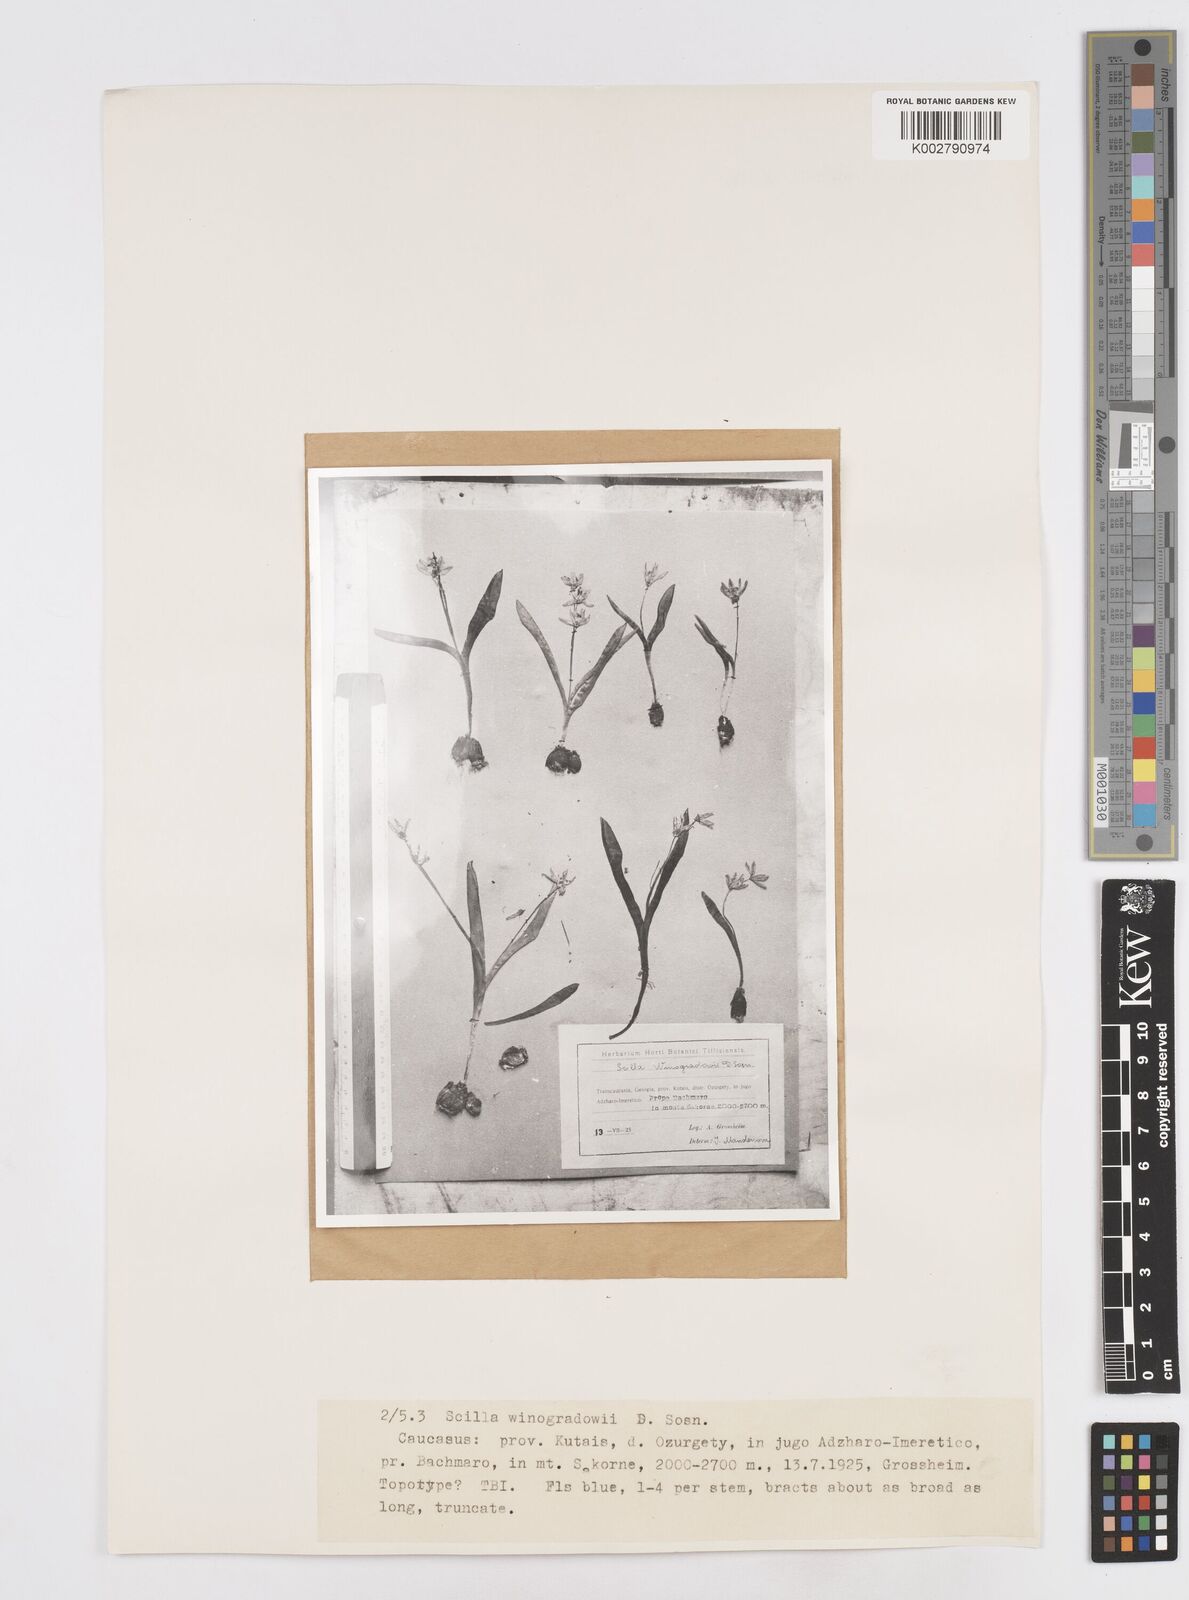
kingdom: Plantae
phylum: Tracheophyta
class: Liliopsida
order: Asparagales
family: Asparagaceae
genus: Scilla
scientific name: Scilla monanthos
